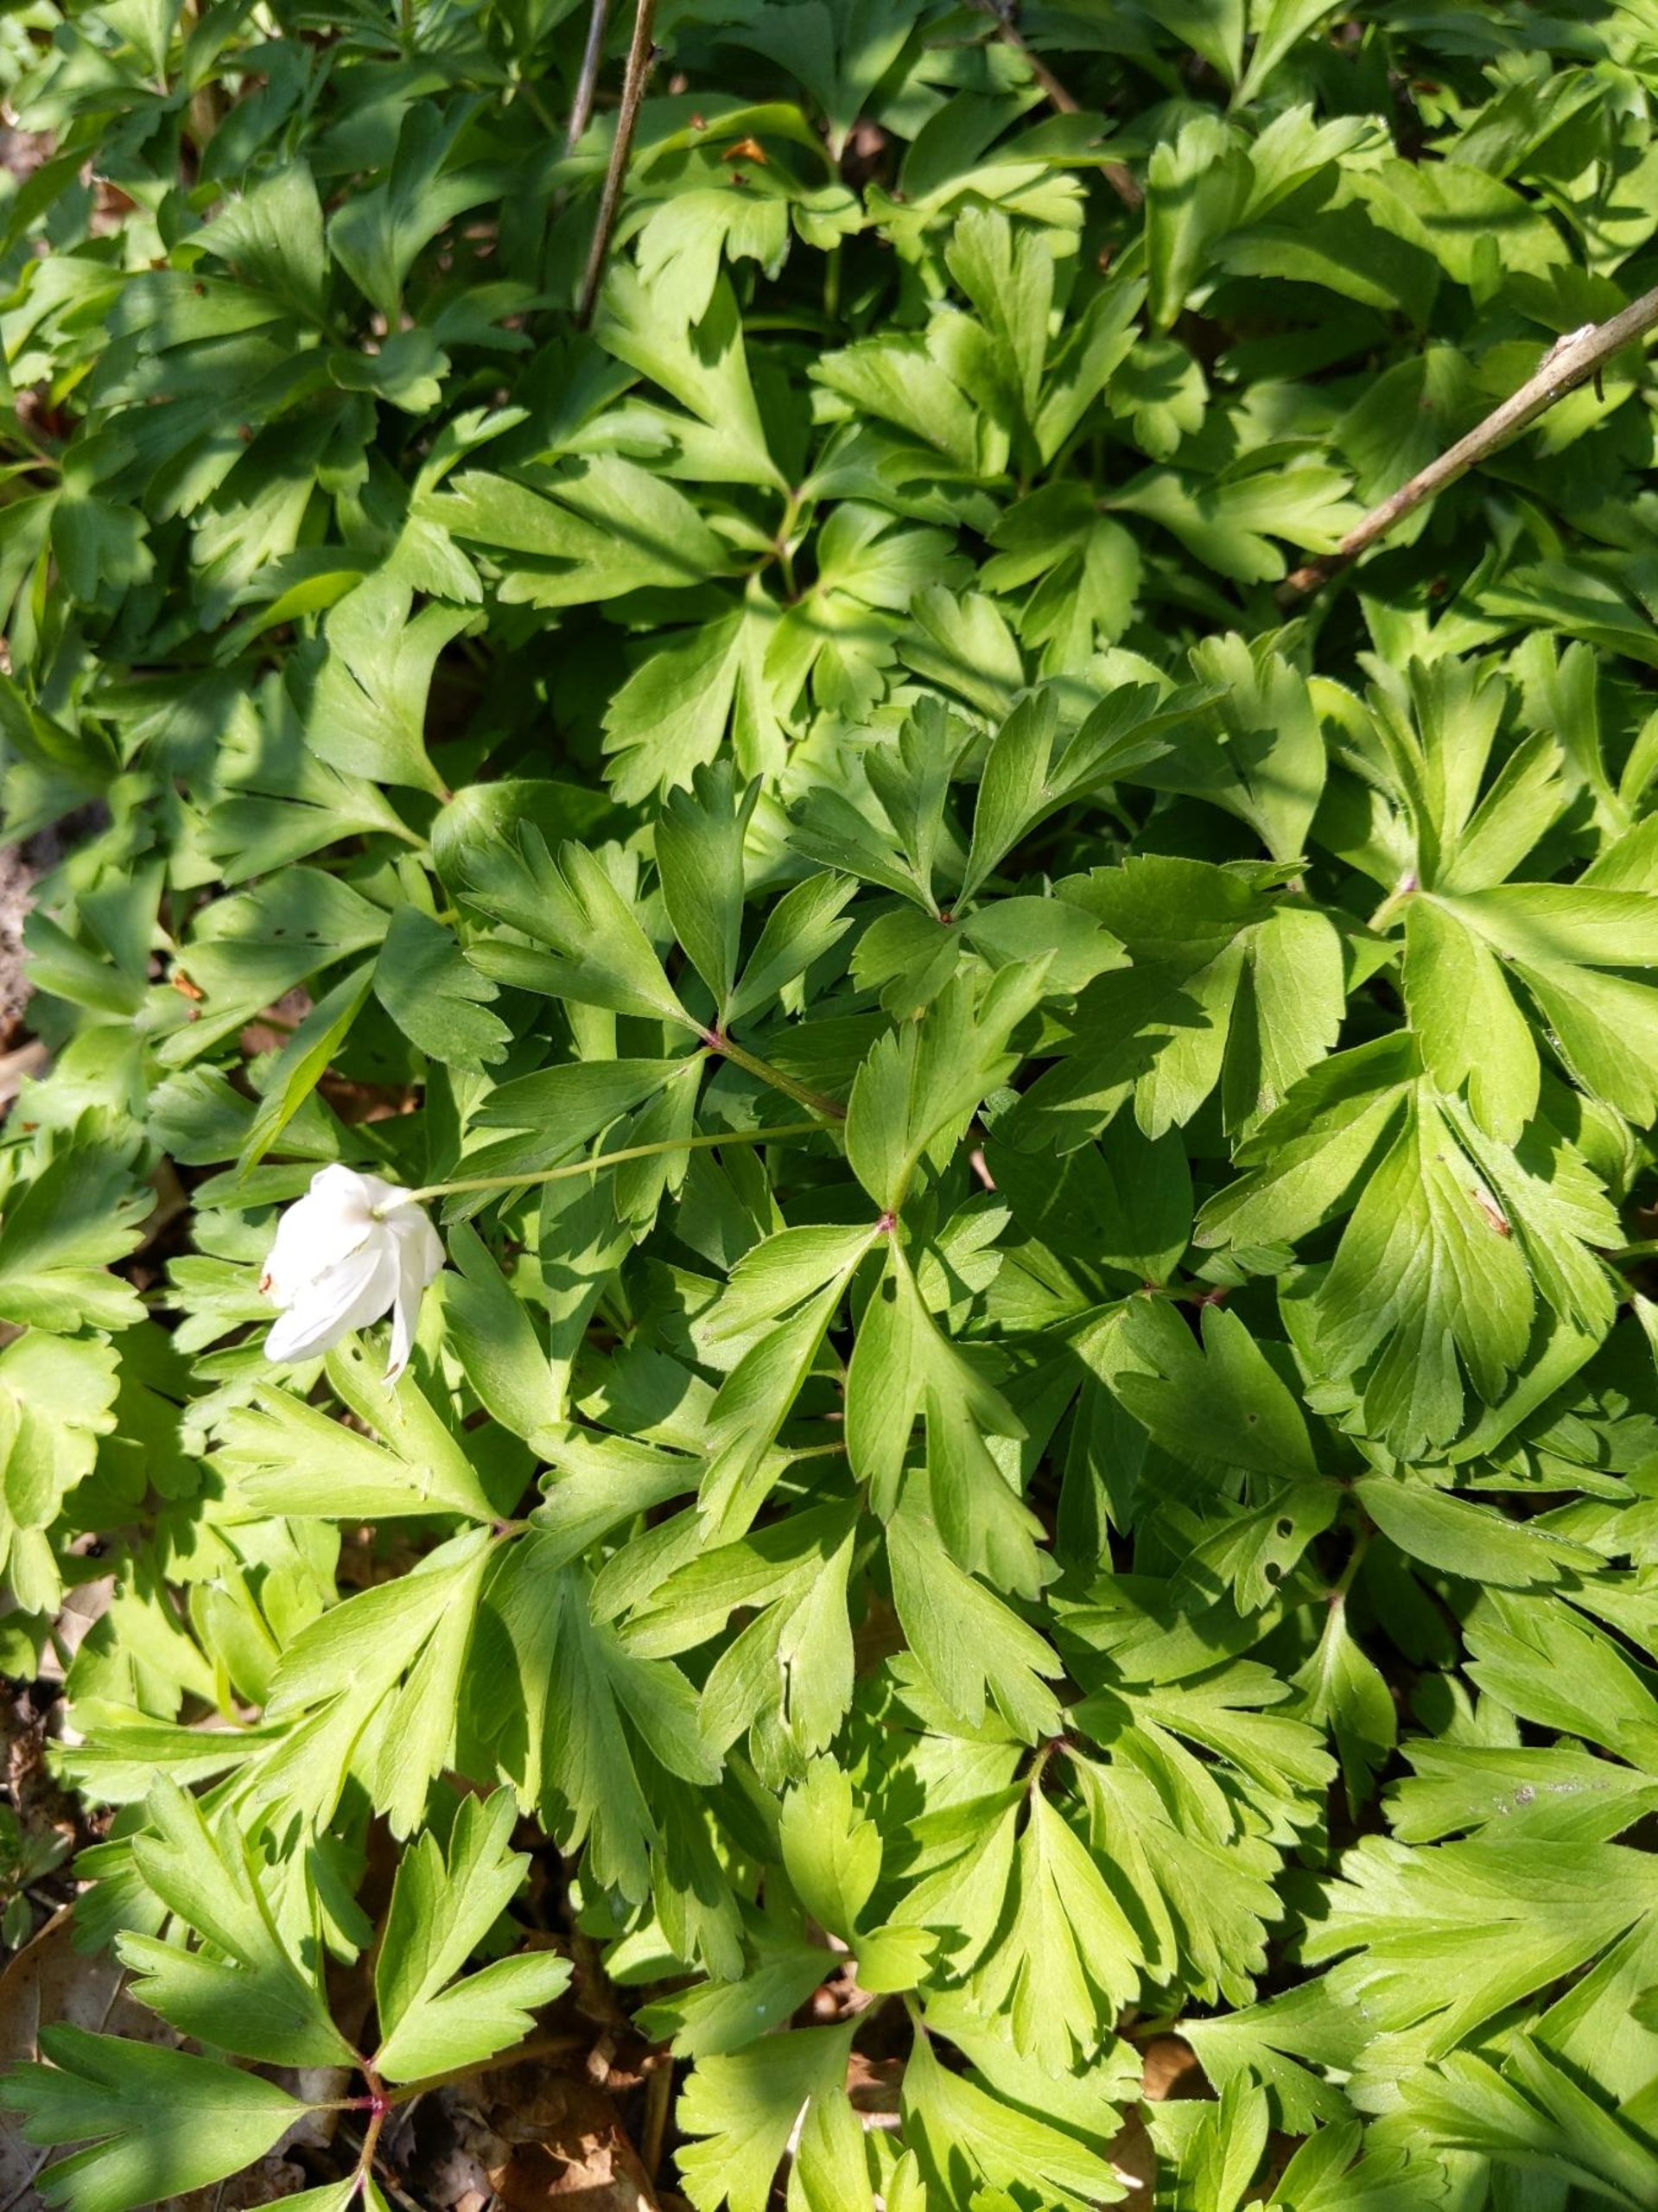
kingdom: Plantae
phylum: Tracheophyta
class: Magnoliopsida
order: Ranunculales
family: Ranunculaceae
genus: Anemone
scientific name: Anemone nemorosa
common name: Hvid anemone
